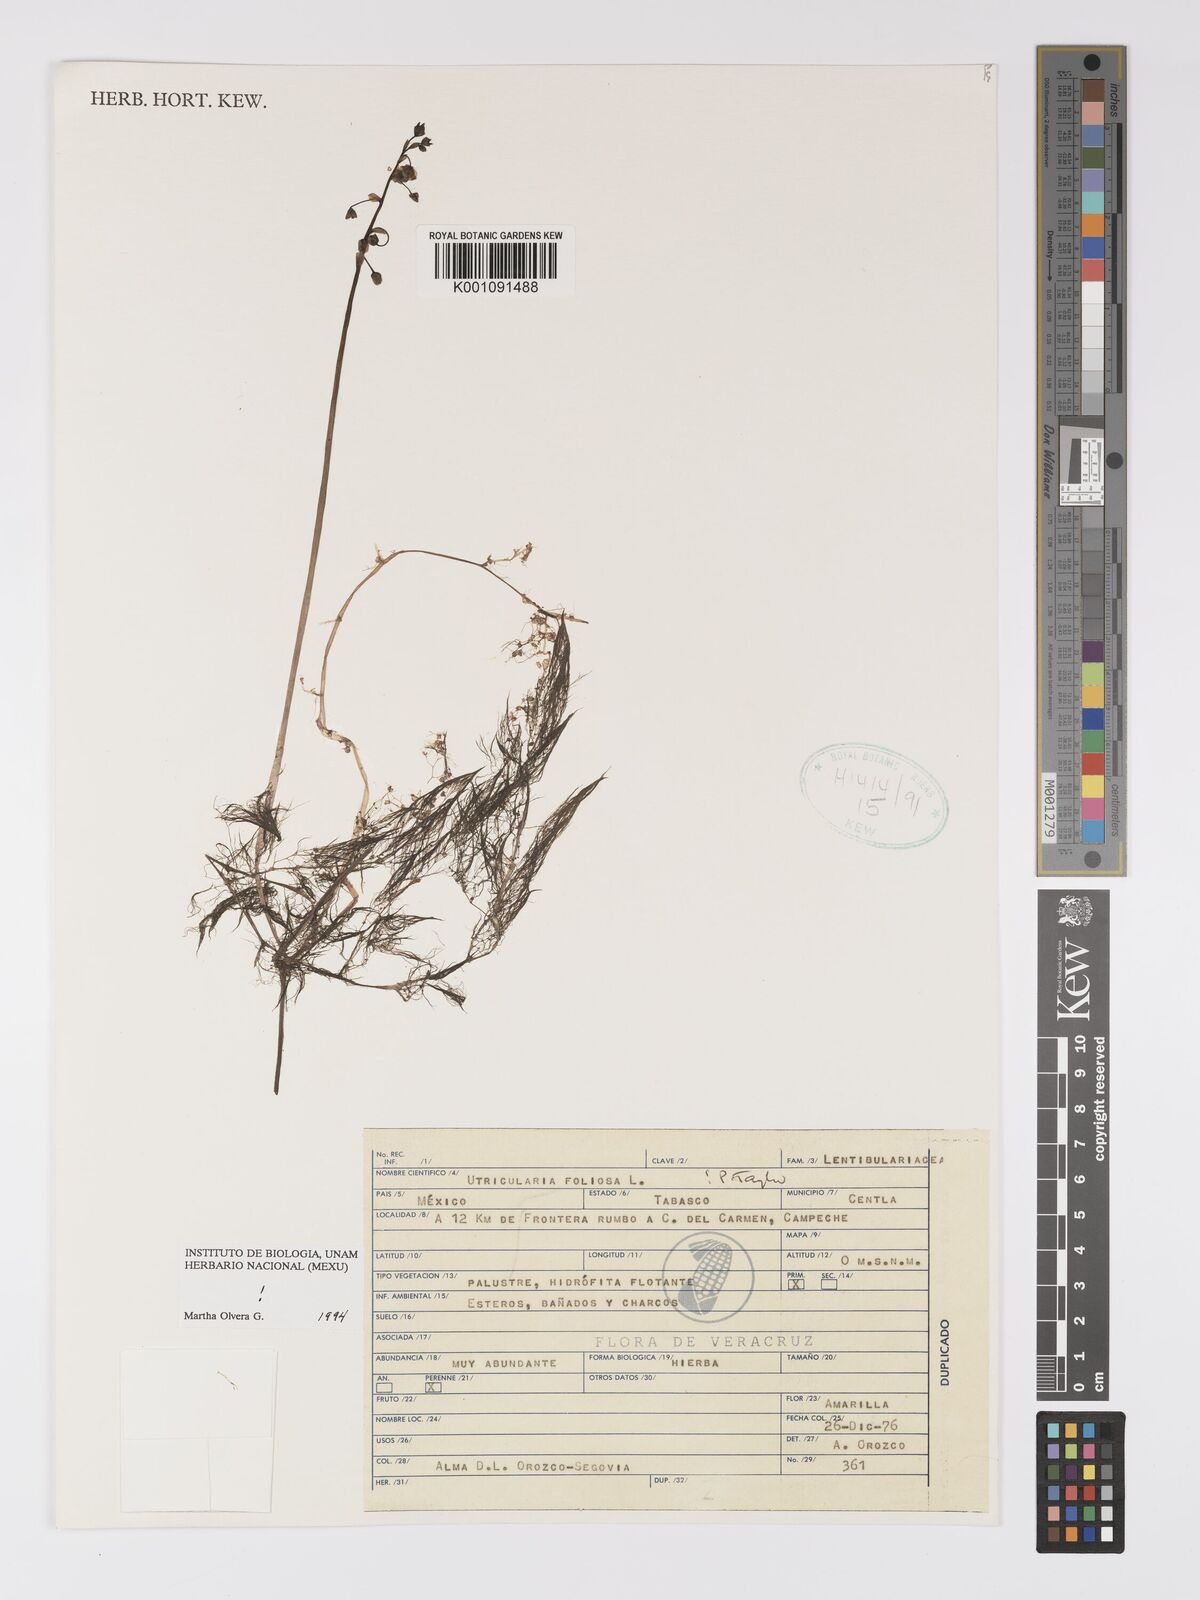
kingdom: Plantae
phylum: Tracheophyta
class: Magnoliopsida
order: Lamiales
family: Lentibulariaceae
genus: Utricularia
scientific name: Utricularia foliosa
